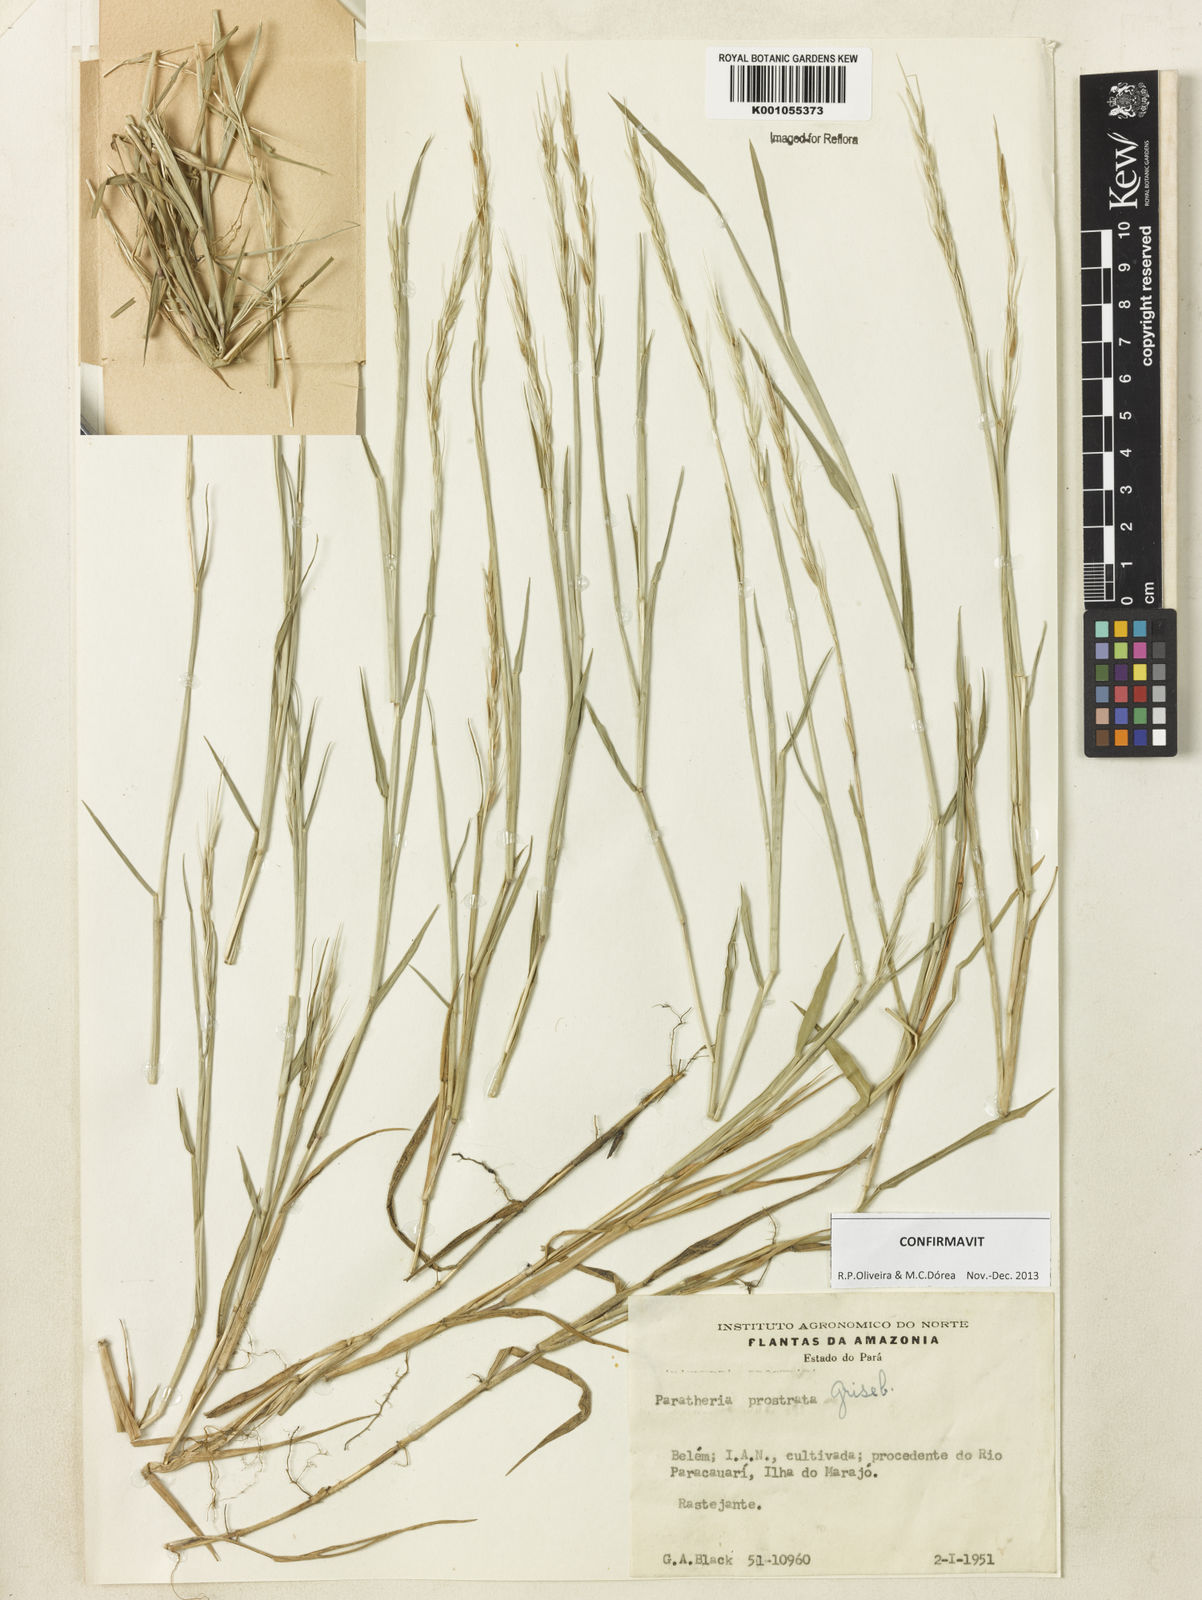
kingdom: Plantae
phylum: Tracheophyta
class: Liliopsida
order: Poales
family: Poaceae
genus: Paratheria
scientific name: Paratheria prostrata
